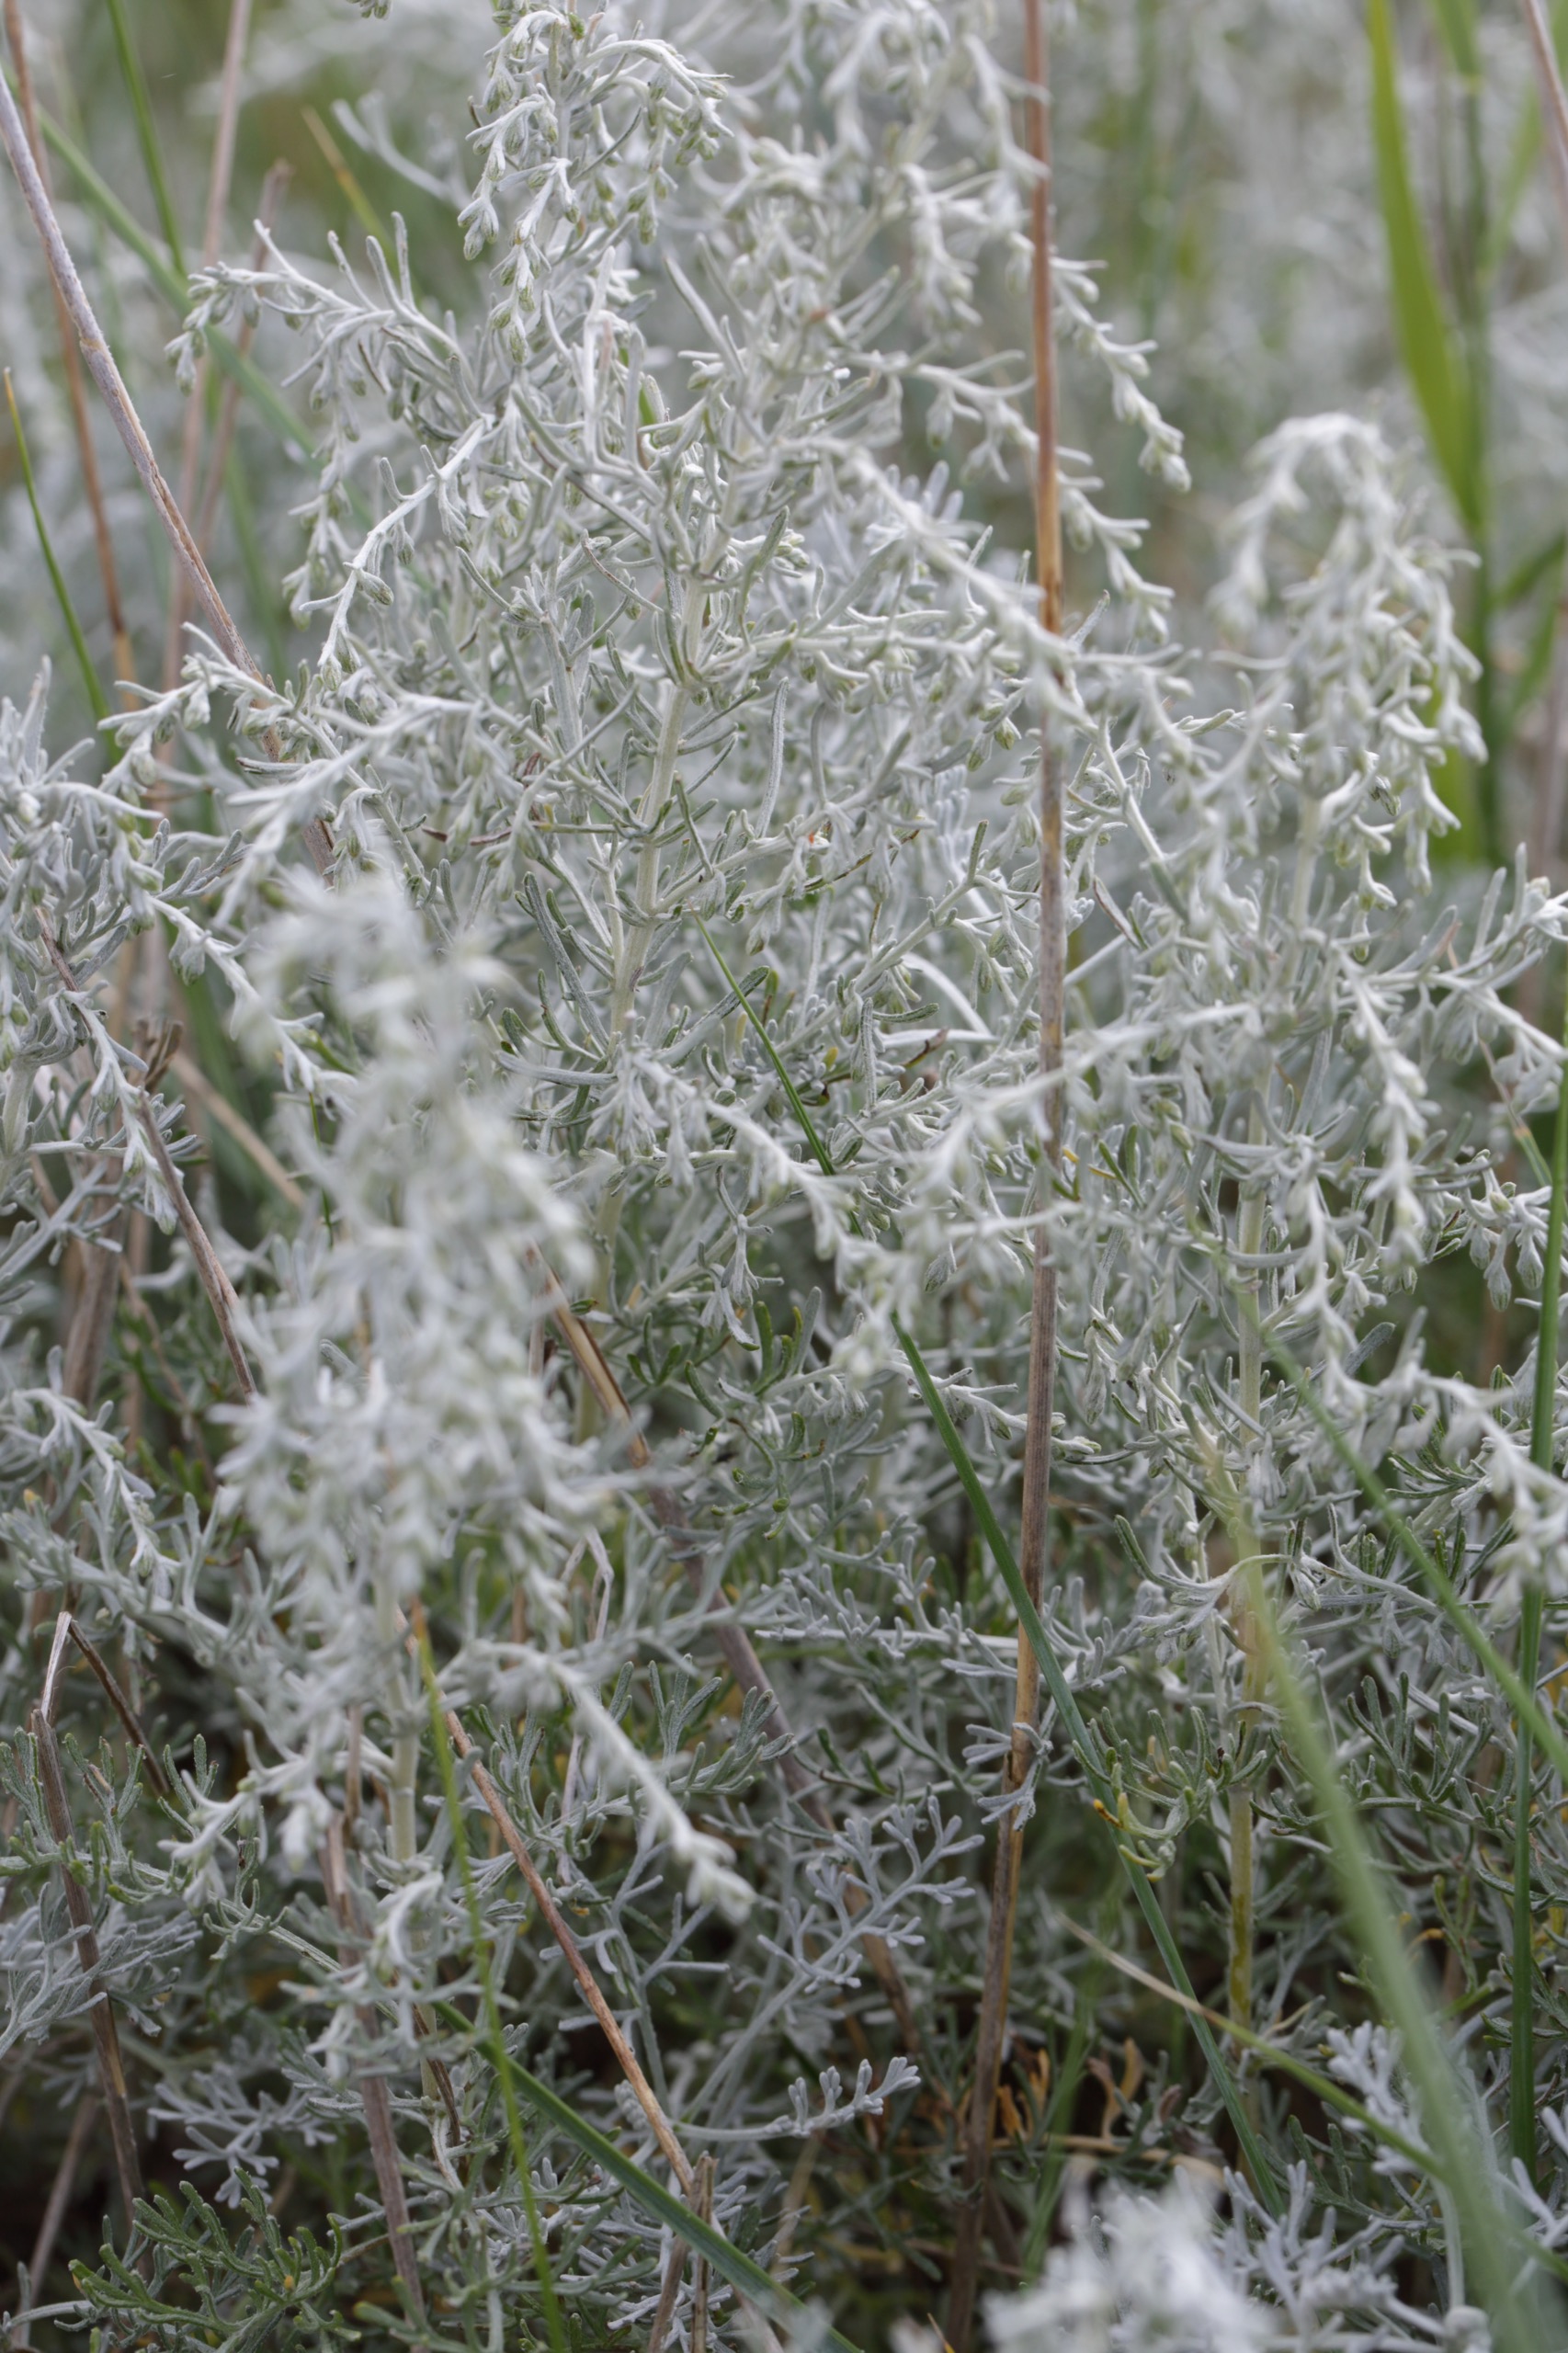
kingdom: Plantae
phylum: Tracheophyta
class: Magnoliopsida
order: Asterales
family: Asteraceae
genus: Artemisia
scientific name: Artemisia maritima
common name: Strandmalurt
